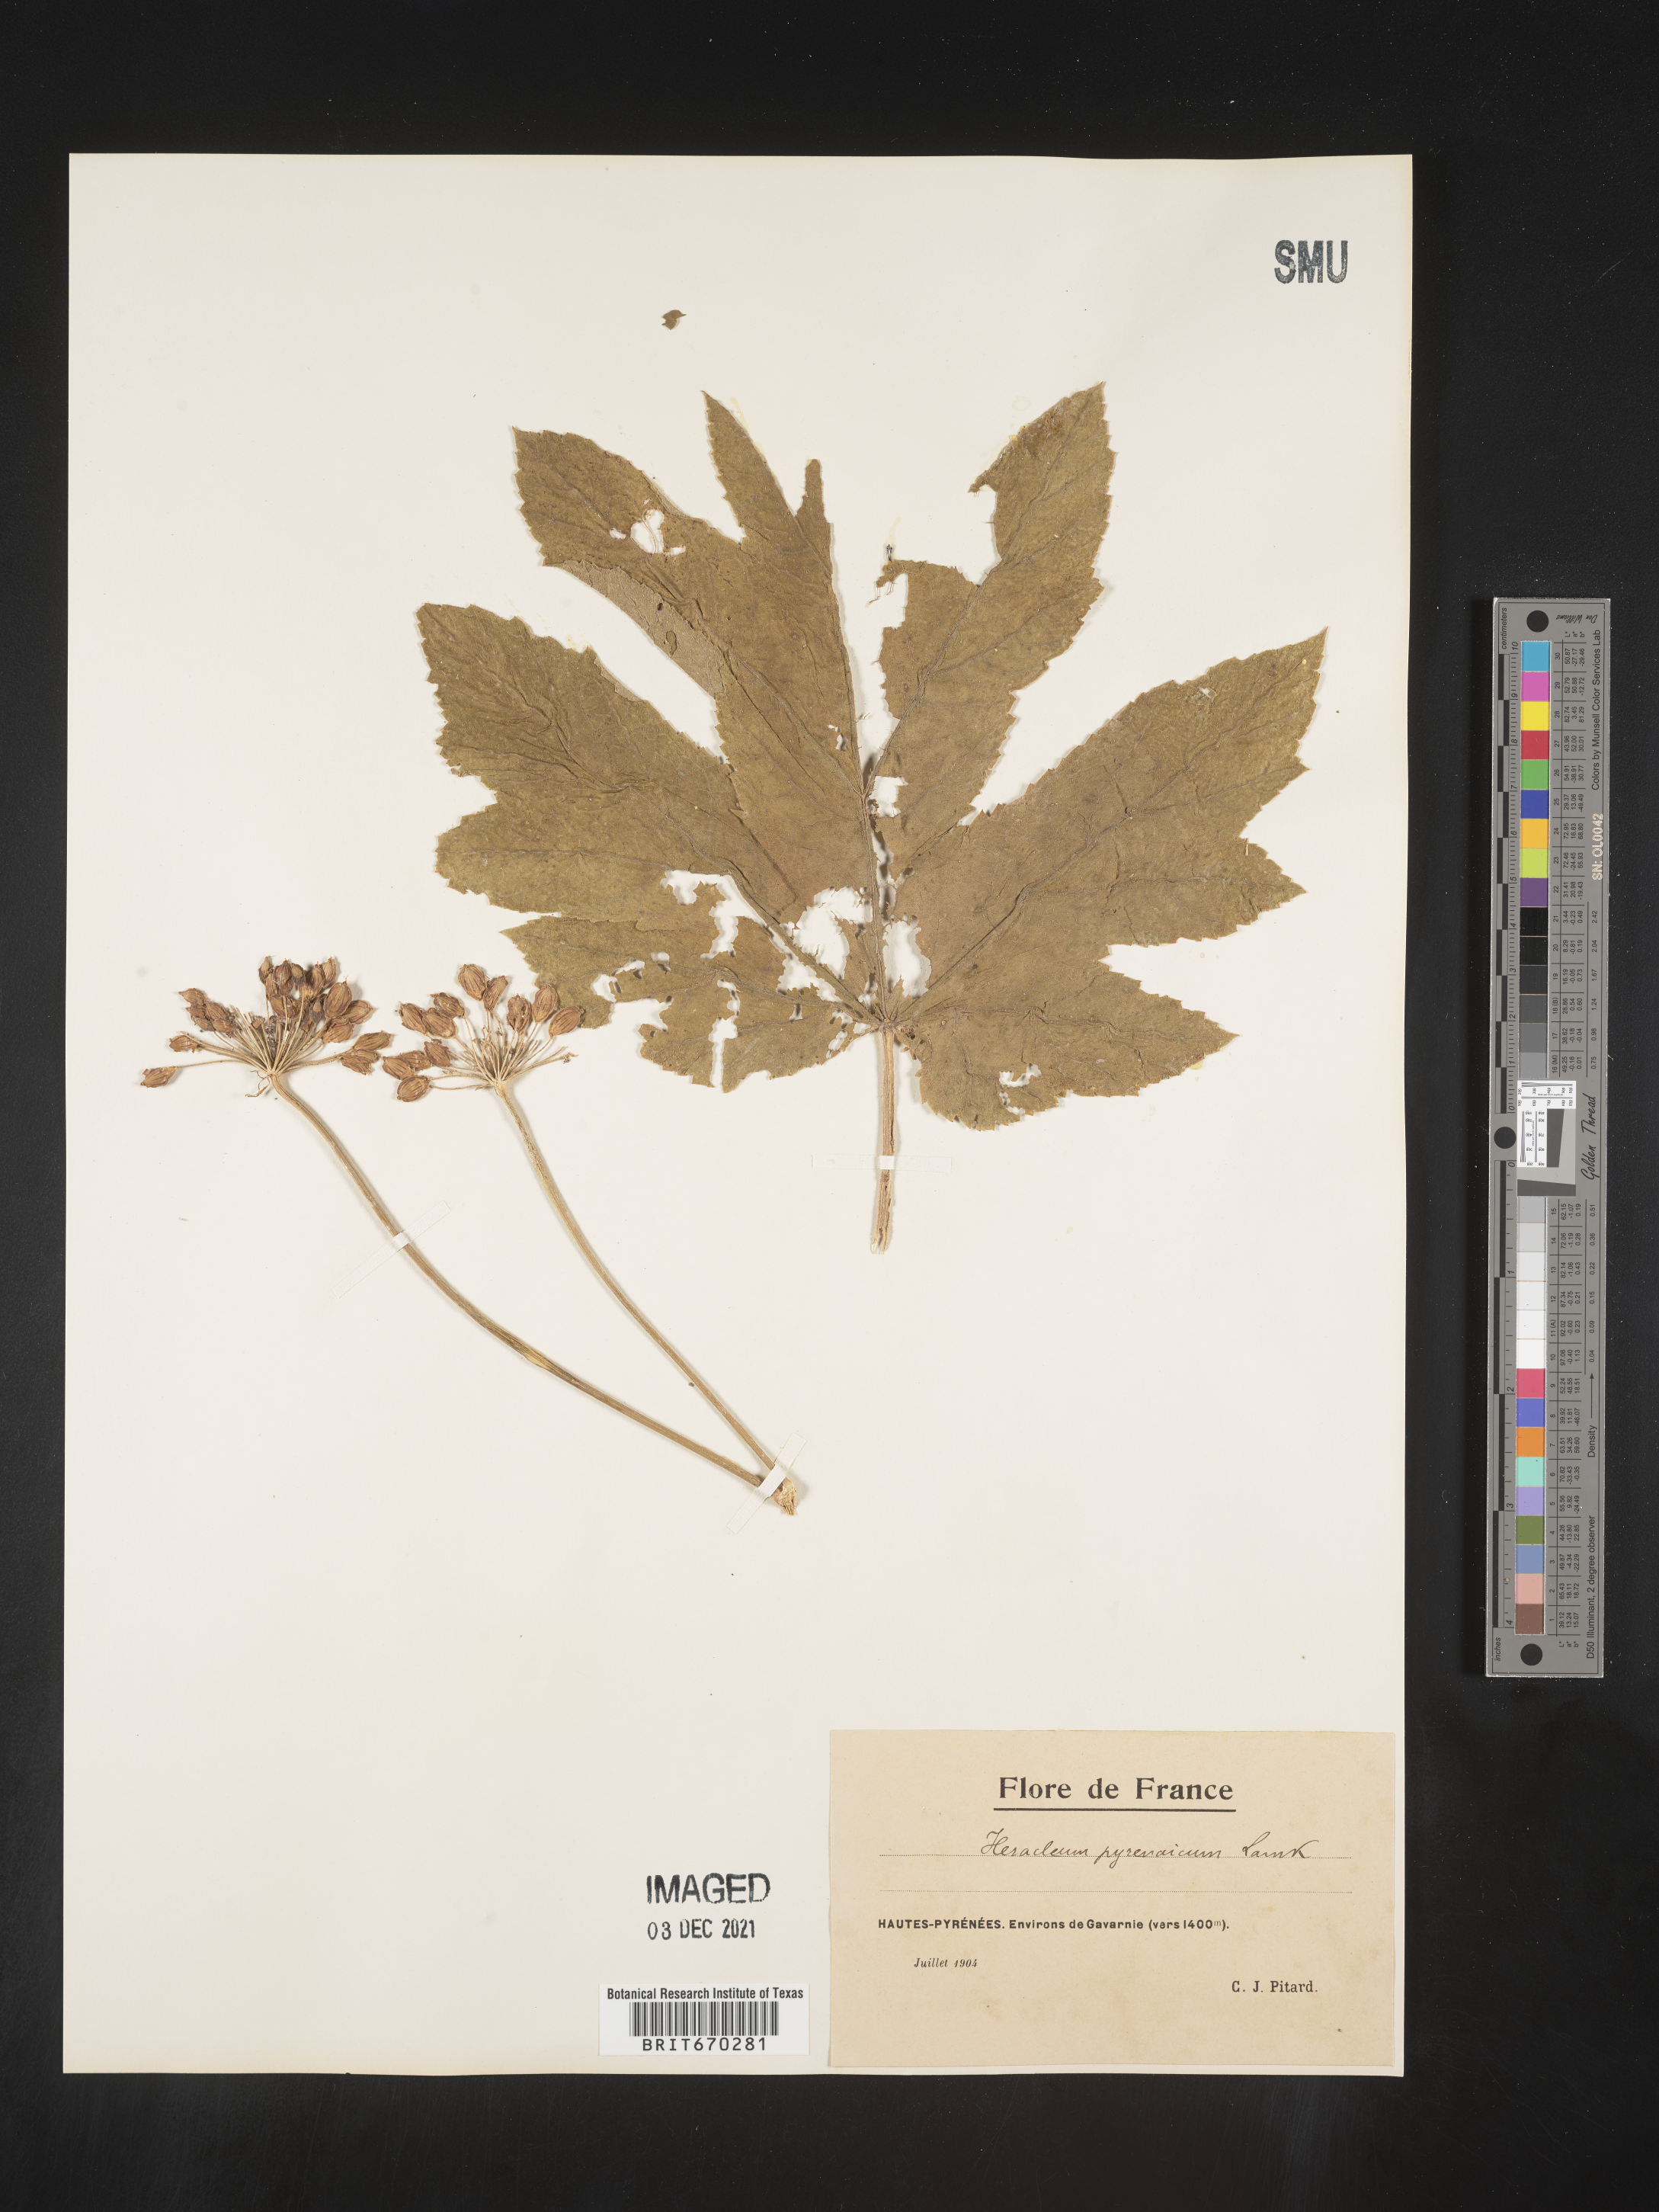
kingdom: Plantae
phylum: Tracheophyta
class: Magnoliopsida
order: Apiales
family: Apiaceae
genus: Heracleum
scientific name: Heracleum
